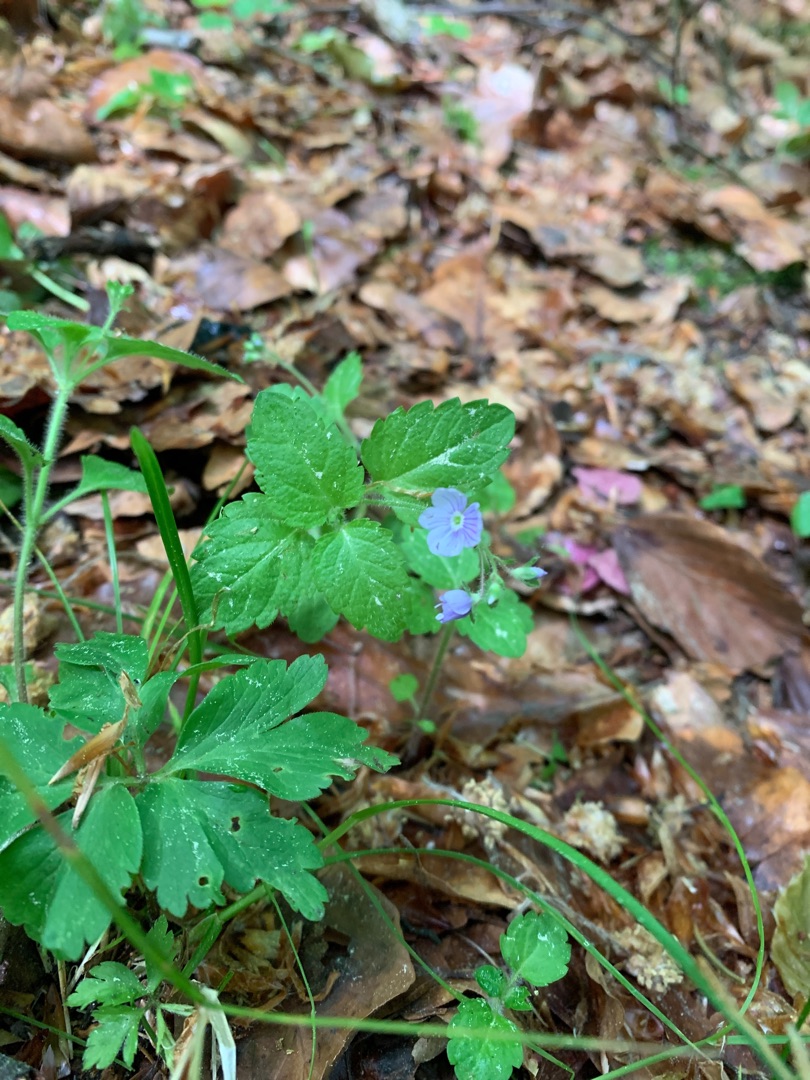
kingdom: Plantae
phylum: Tracheophyta
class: Magnoliopsida
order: Lamiales
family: Plantaginaceae
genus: Veronica
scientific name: Veronica montana
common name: Bjerg-ærenpris
